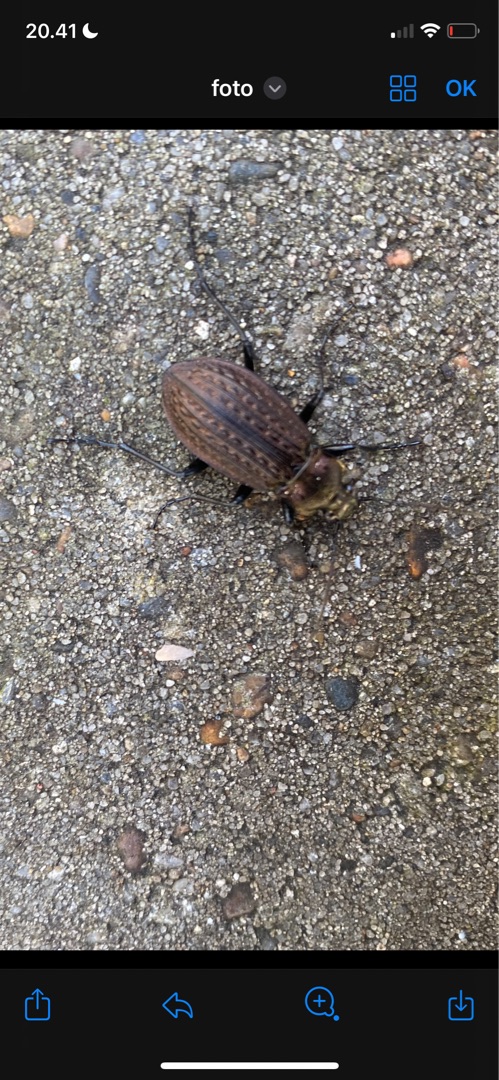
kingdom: Animalia
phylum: Arthropoda
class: Insecta
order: Coleoptera
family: Carabidae
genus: Carabus
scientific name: Carabus granulatus
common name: Kornet løber
